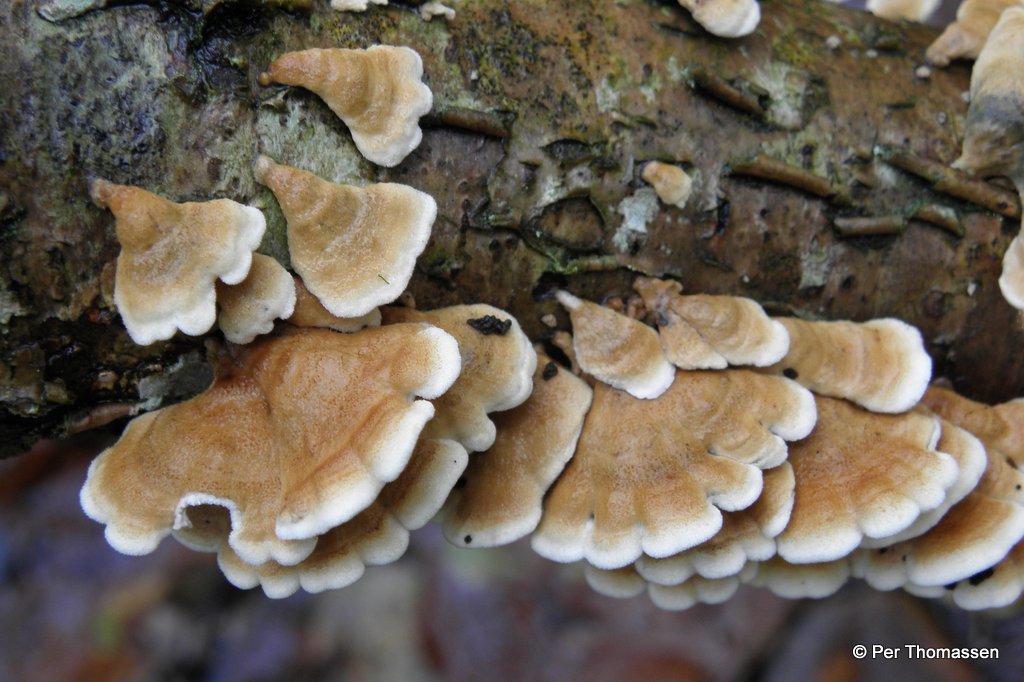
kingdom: Fungi
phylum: Basidiomycota
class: Agaricomycetes
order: Amylocorticiales
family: Amylocorticiaceae
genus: Plicaturopsis
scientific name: Plicaturopsis crispa
